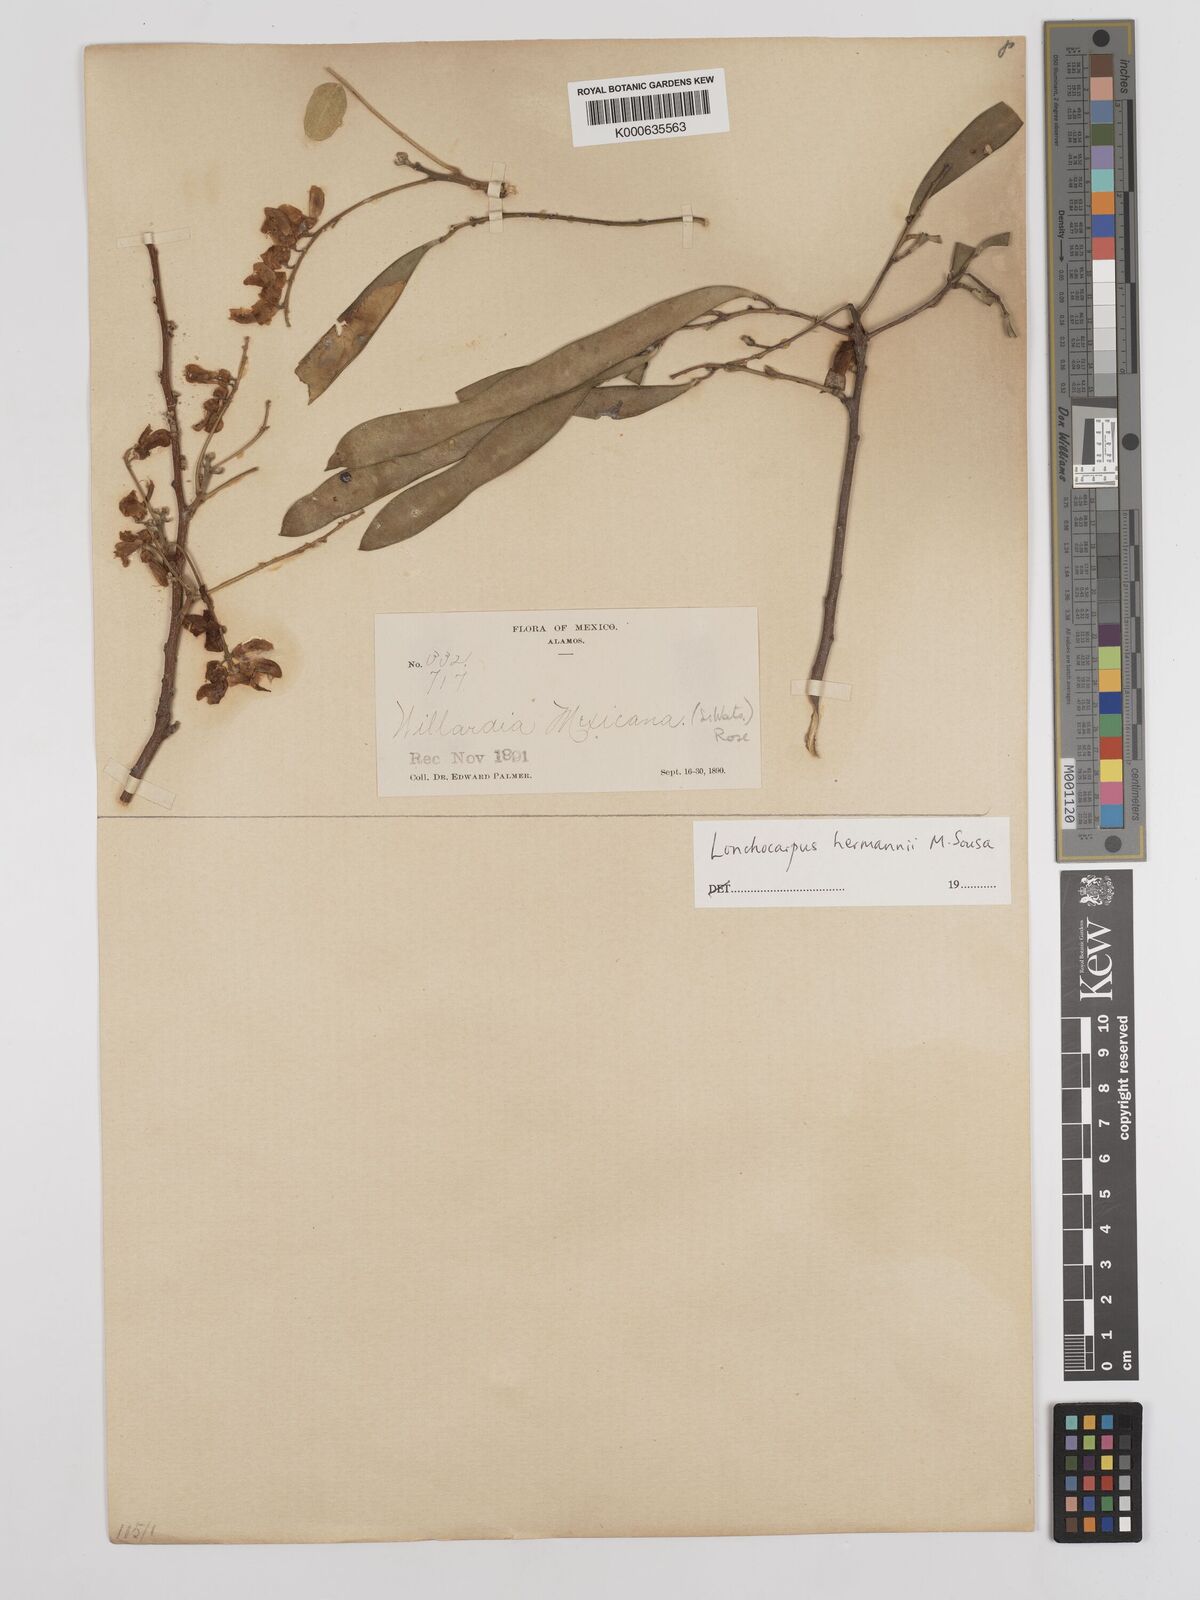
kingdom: Plantae
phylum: Tracheophyta
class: Magnoliopsida
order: Fabales
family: Fabaceae
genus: Lonchocarpus
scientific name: Lonchocarpus hermannii
